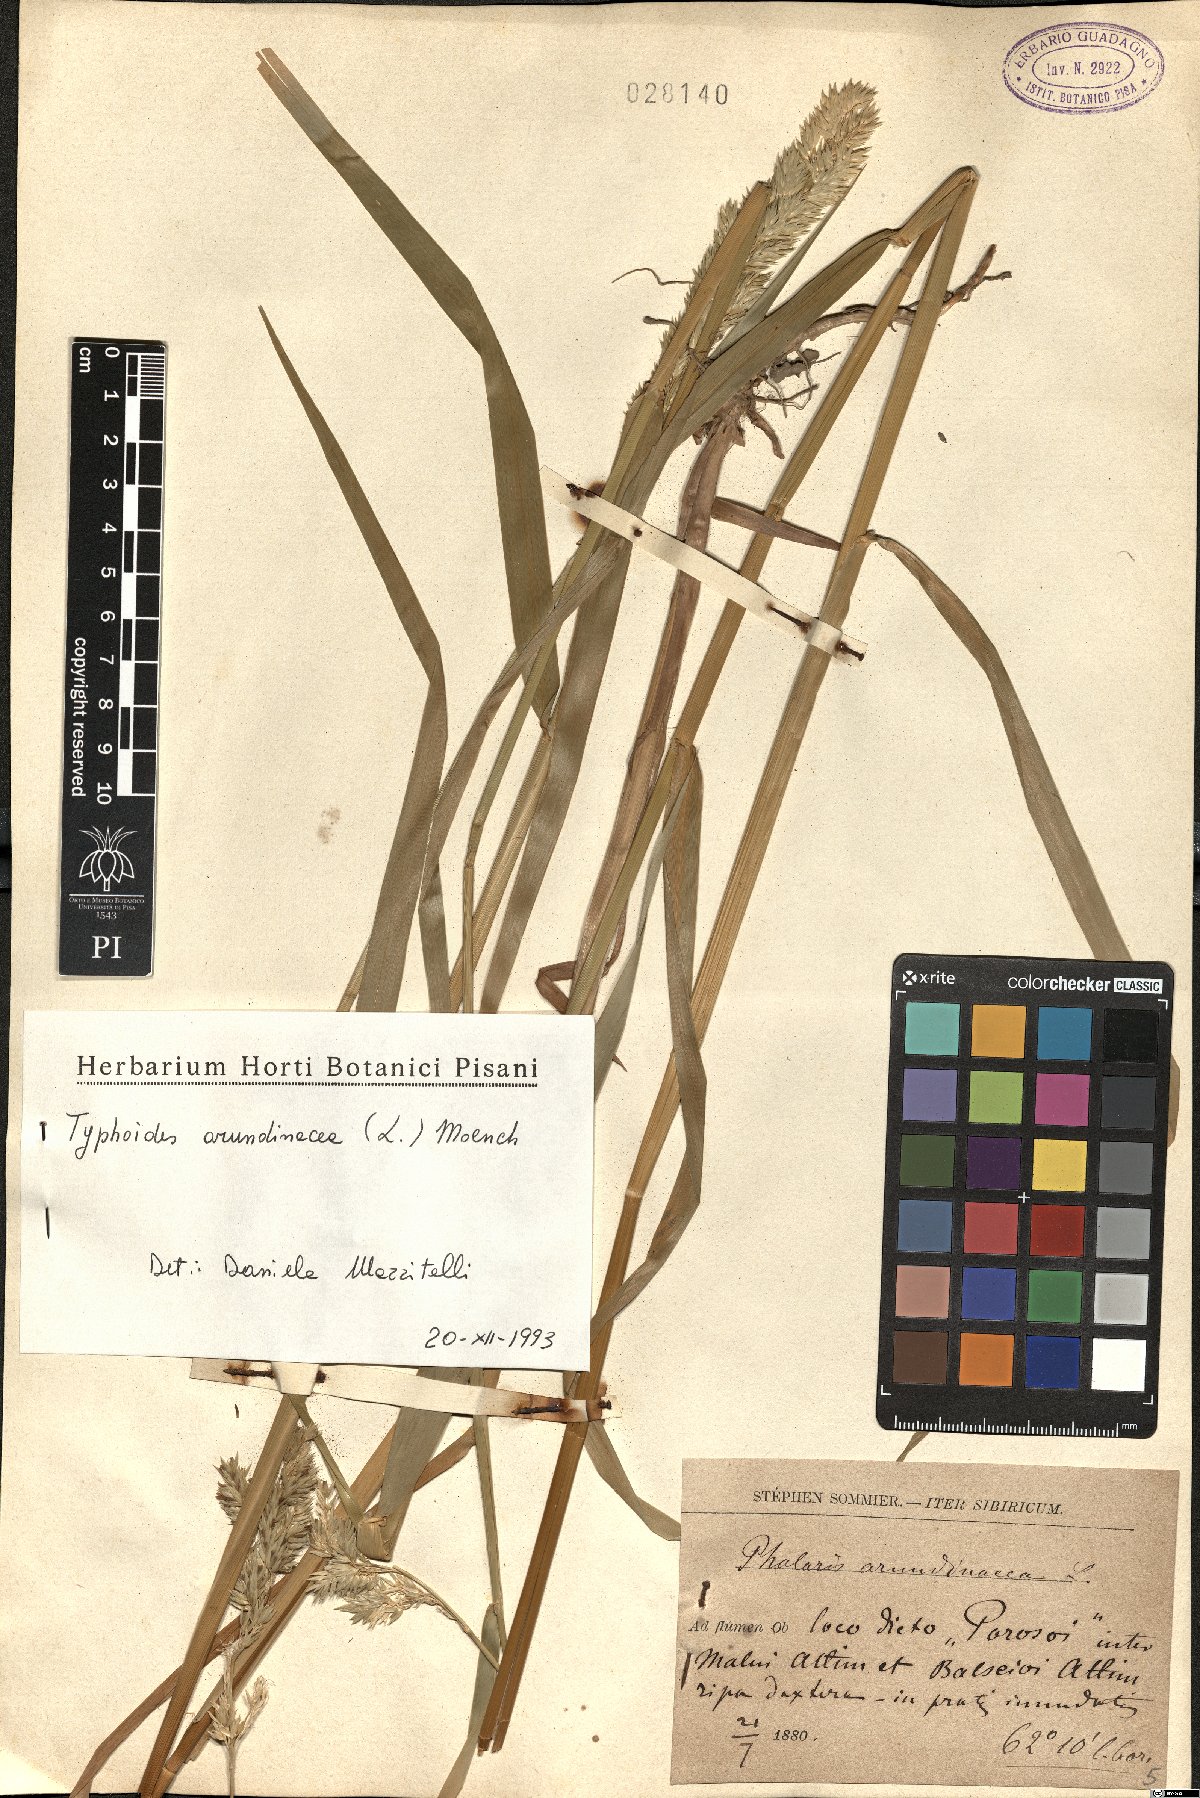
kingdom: Plantae
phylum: Tracheophyta
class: Liliopsida
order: Poales
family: Poaceae
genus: Phalaris
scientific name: Phalaris arundinacea
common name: Reed canary-grass
